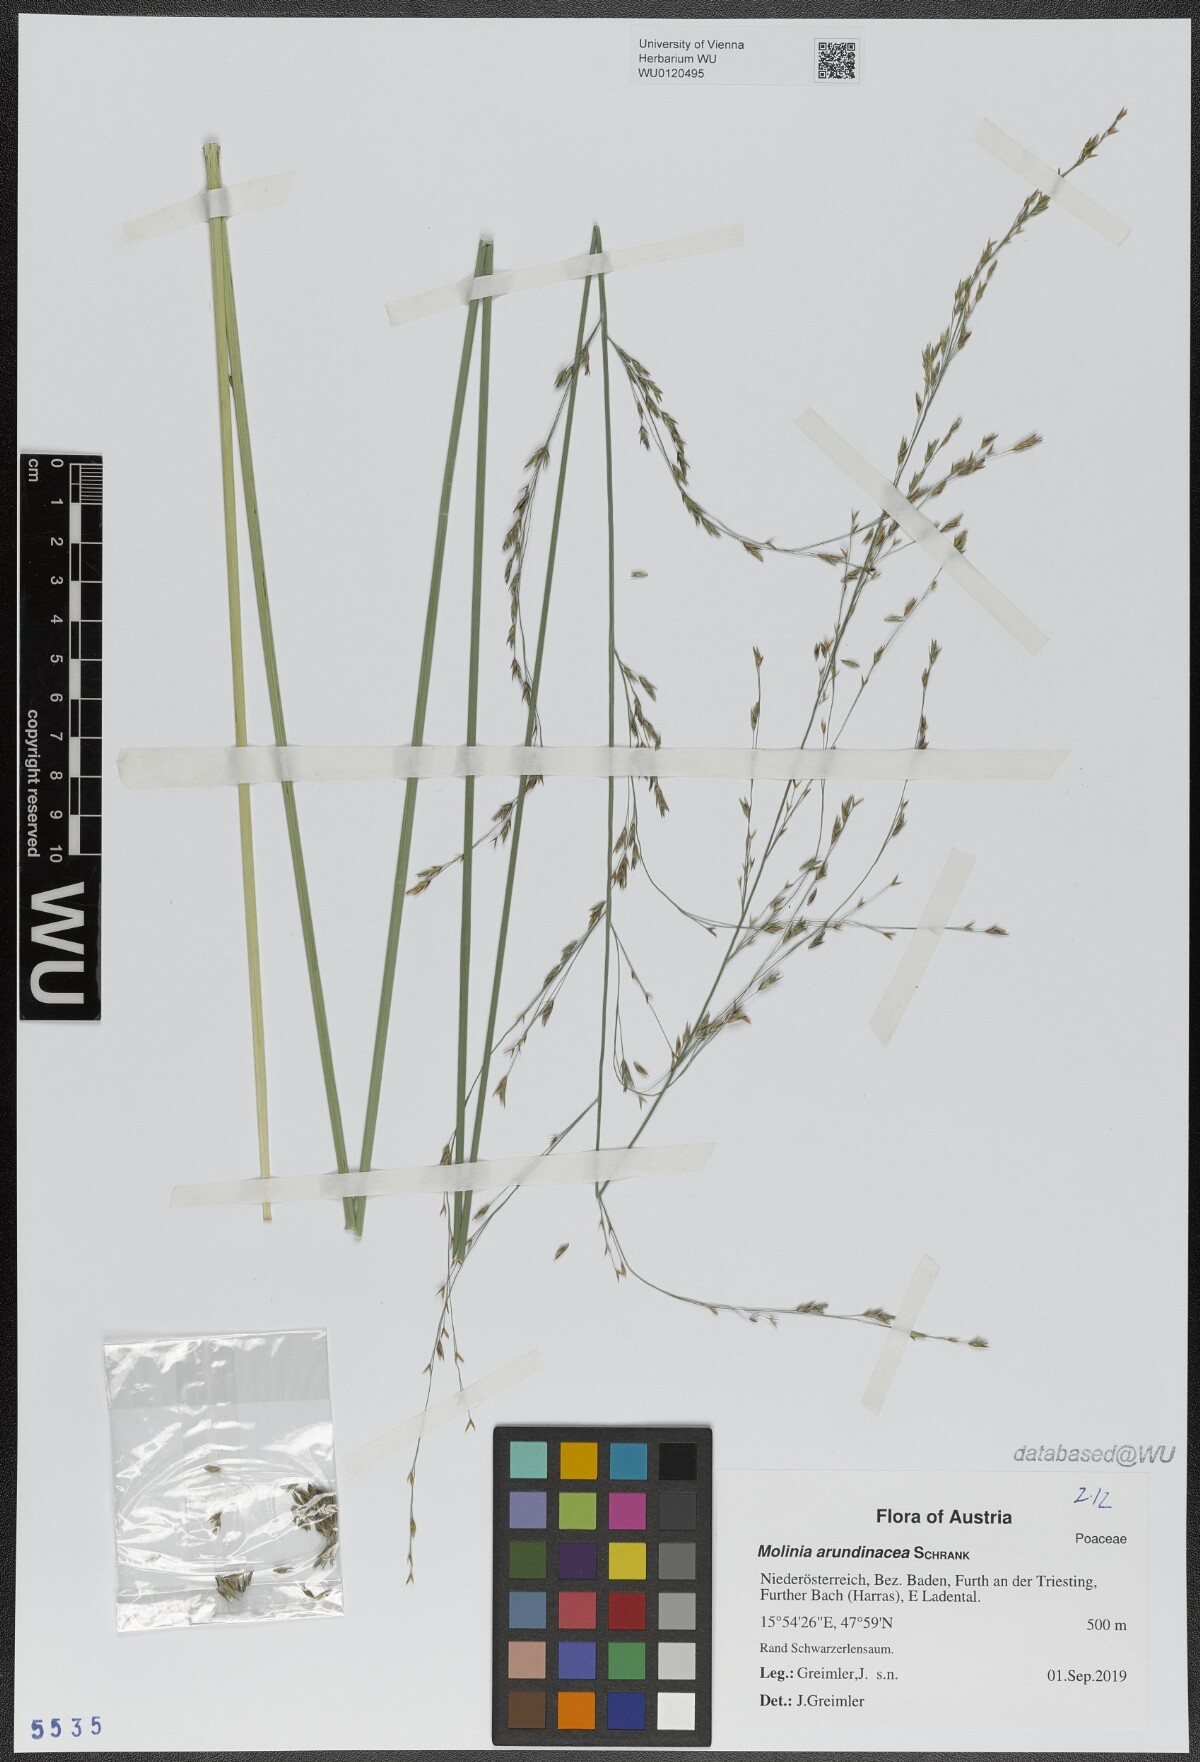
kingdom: Plantae
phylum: Tracheophyta
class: Liliopsida
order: Poales
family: Poaceae
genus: Molinia
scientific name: Molinia arundinacea
